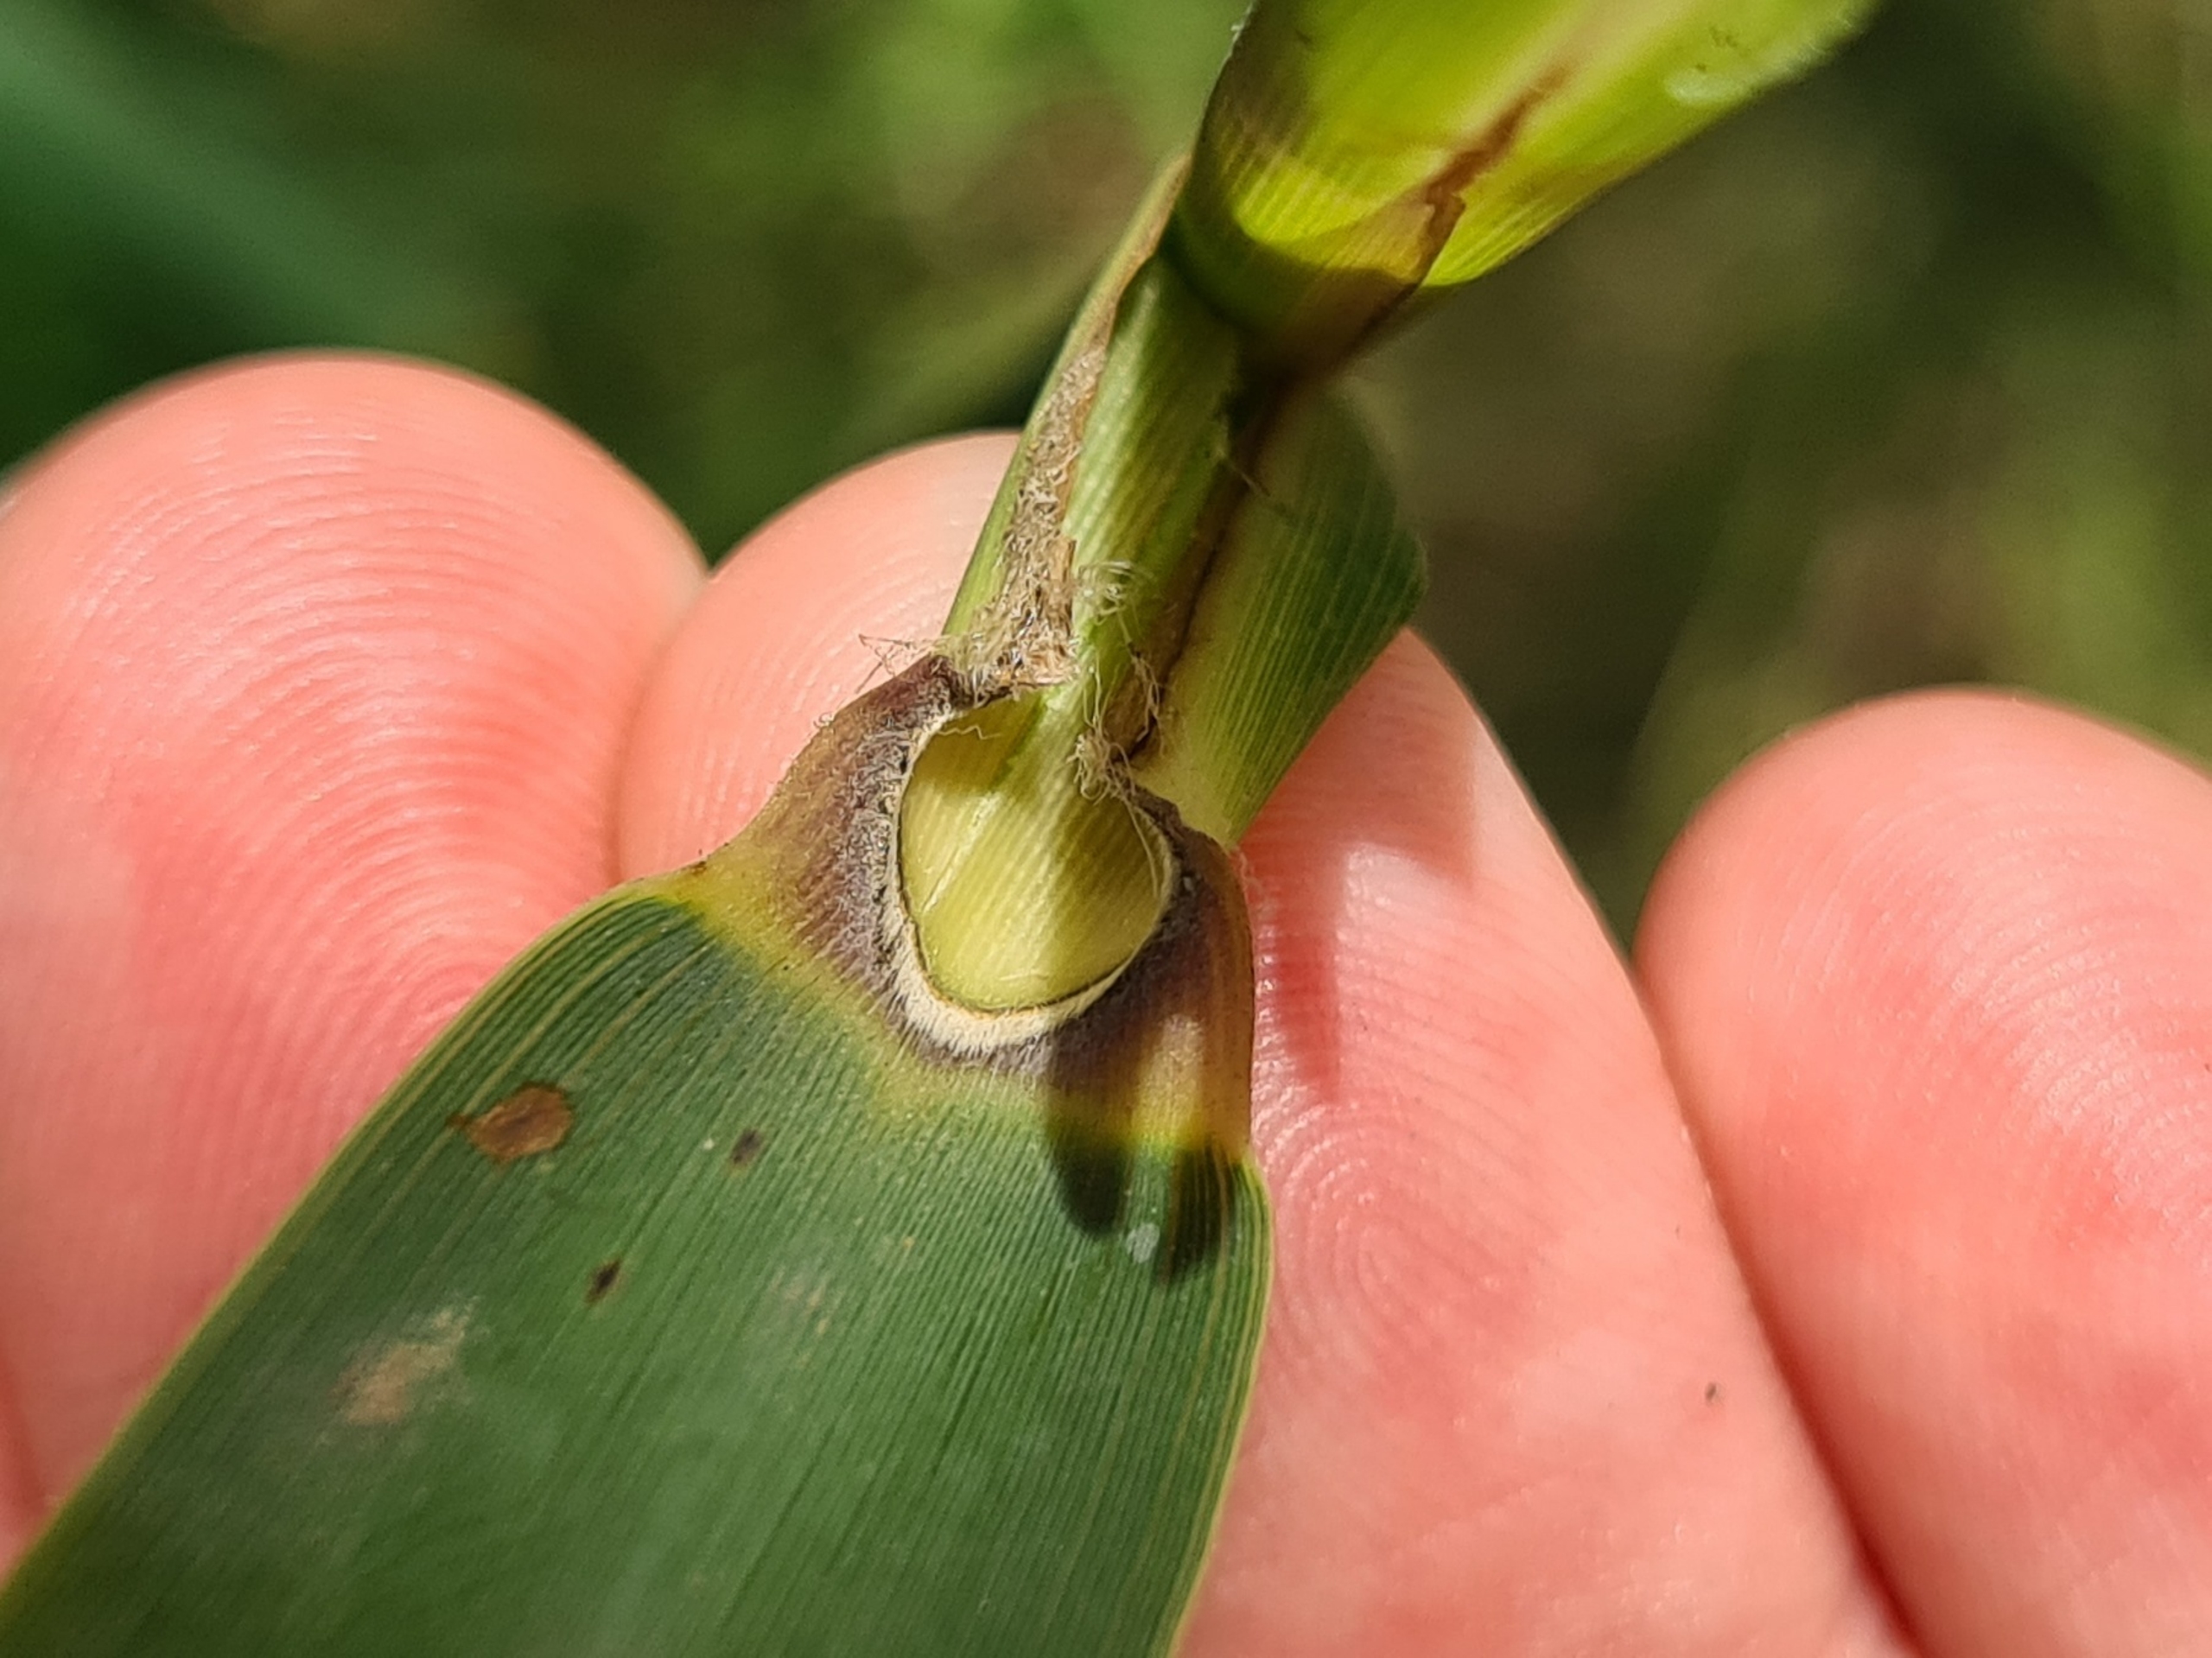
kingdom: Plantae
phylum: Tracheophyta
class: Liliopsida
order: Poales
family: Poaceae
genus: Phragmites
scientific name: Phragmites australis
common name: Tagrør
